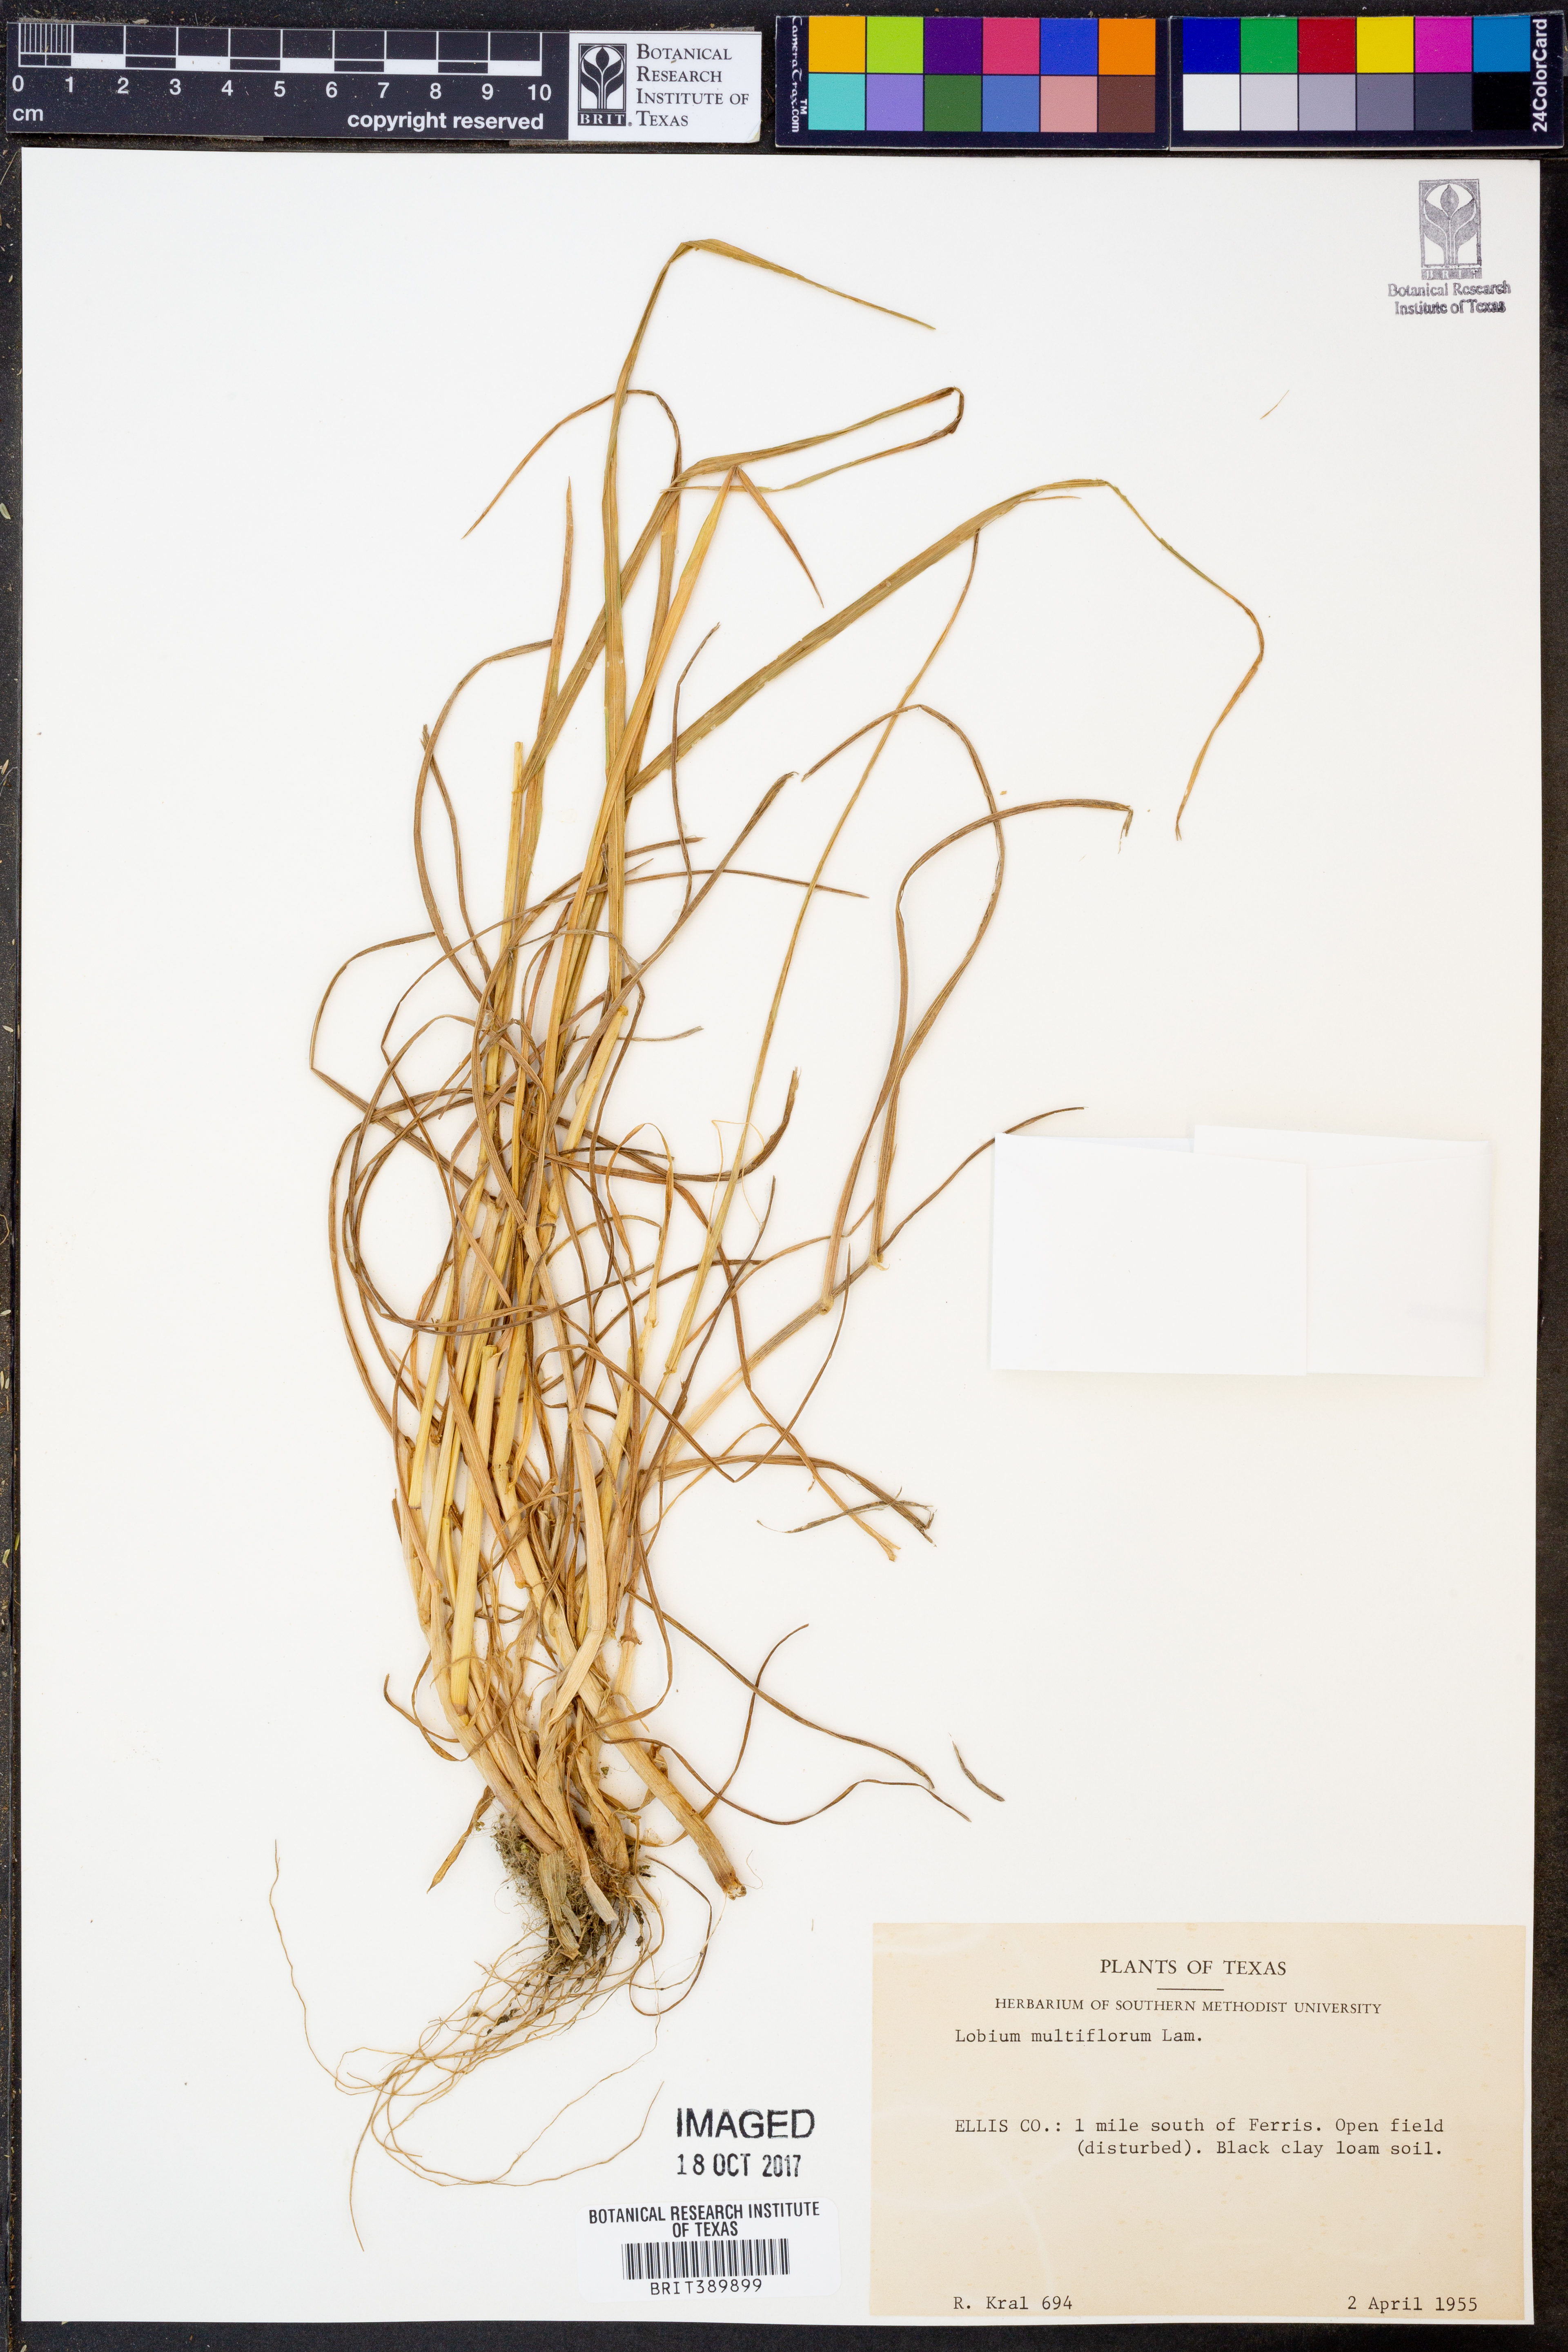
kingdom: Plantae
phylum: Tracheophyta
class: Liliopsida
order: Poales
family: Poaceae
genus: Lolium
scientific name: Lolium multiflorum
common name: Annual ryegrass
